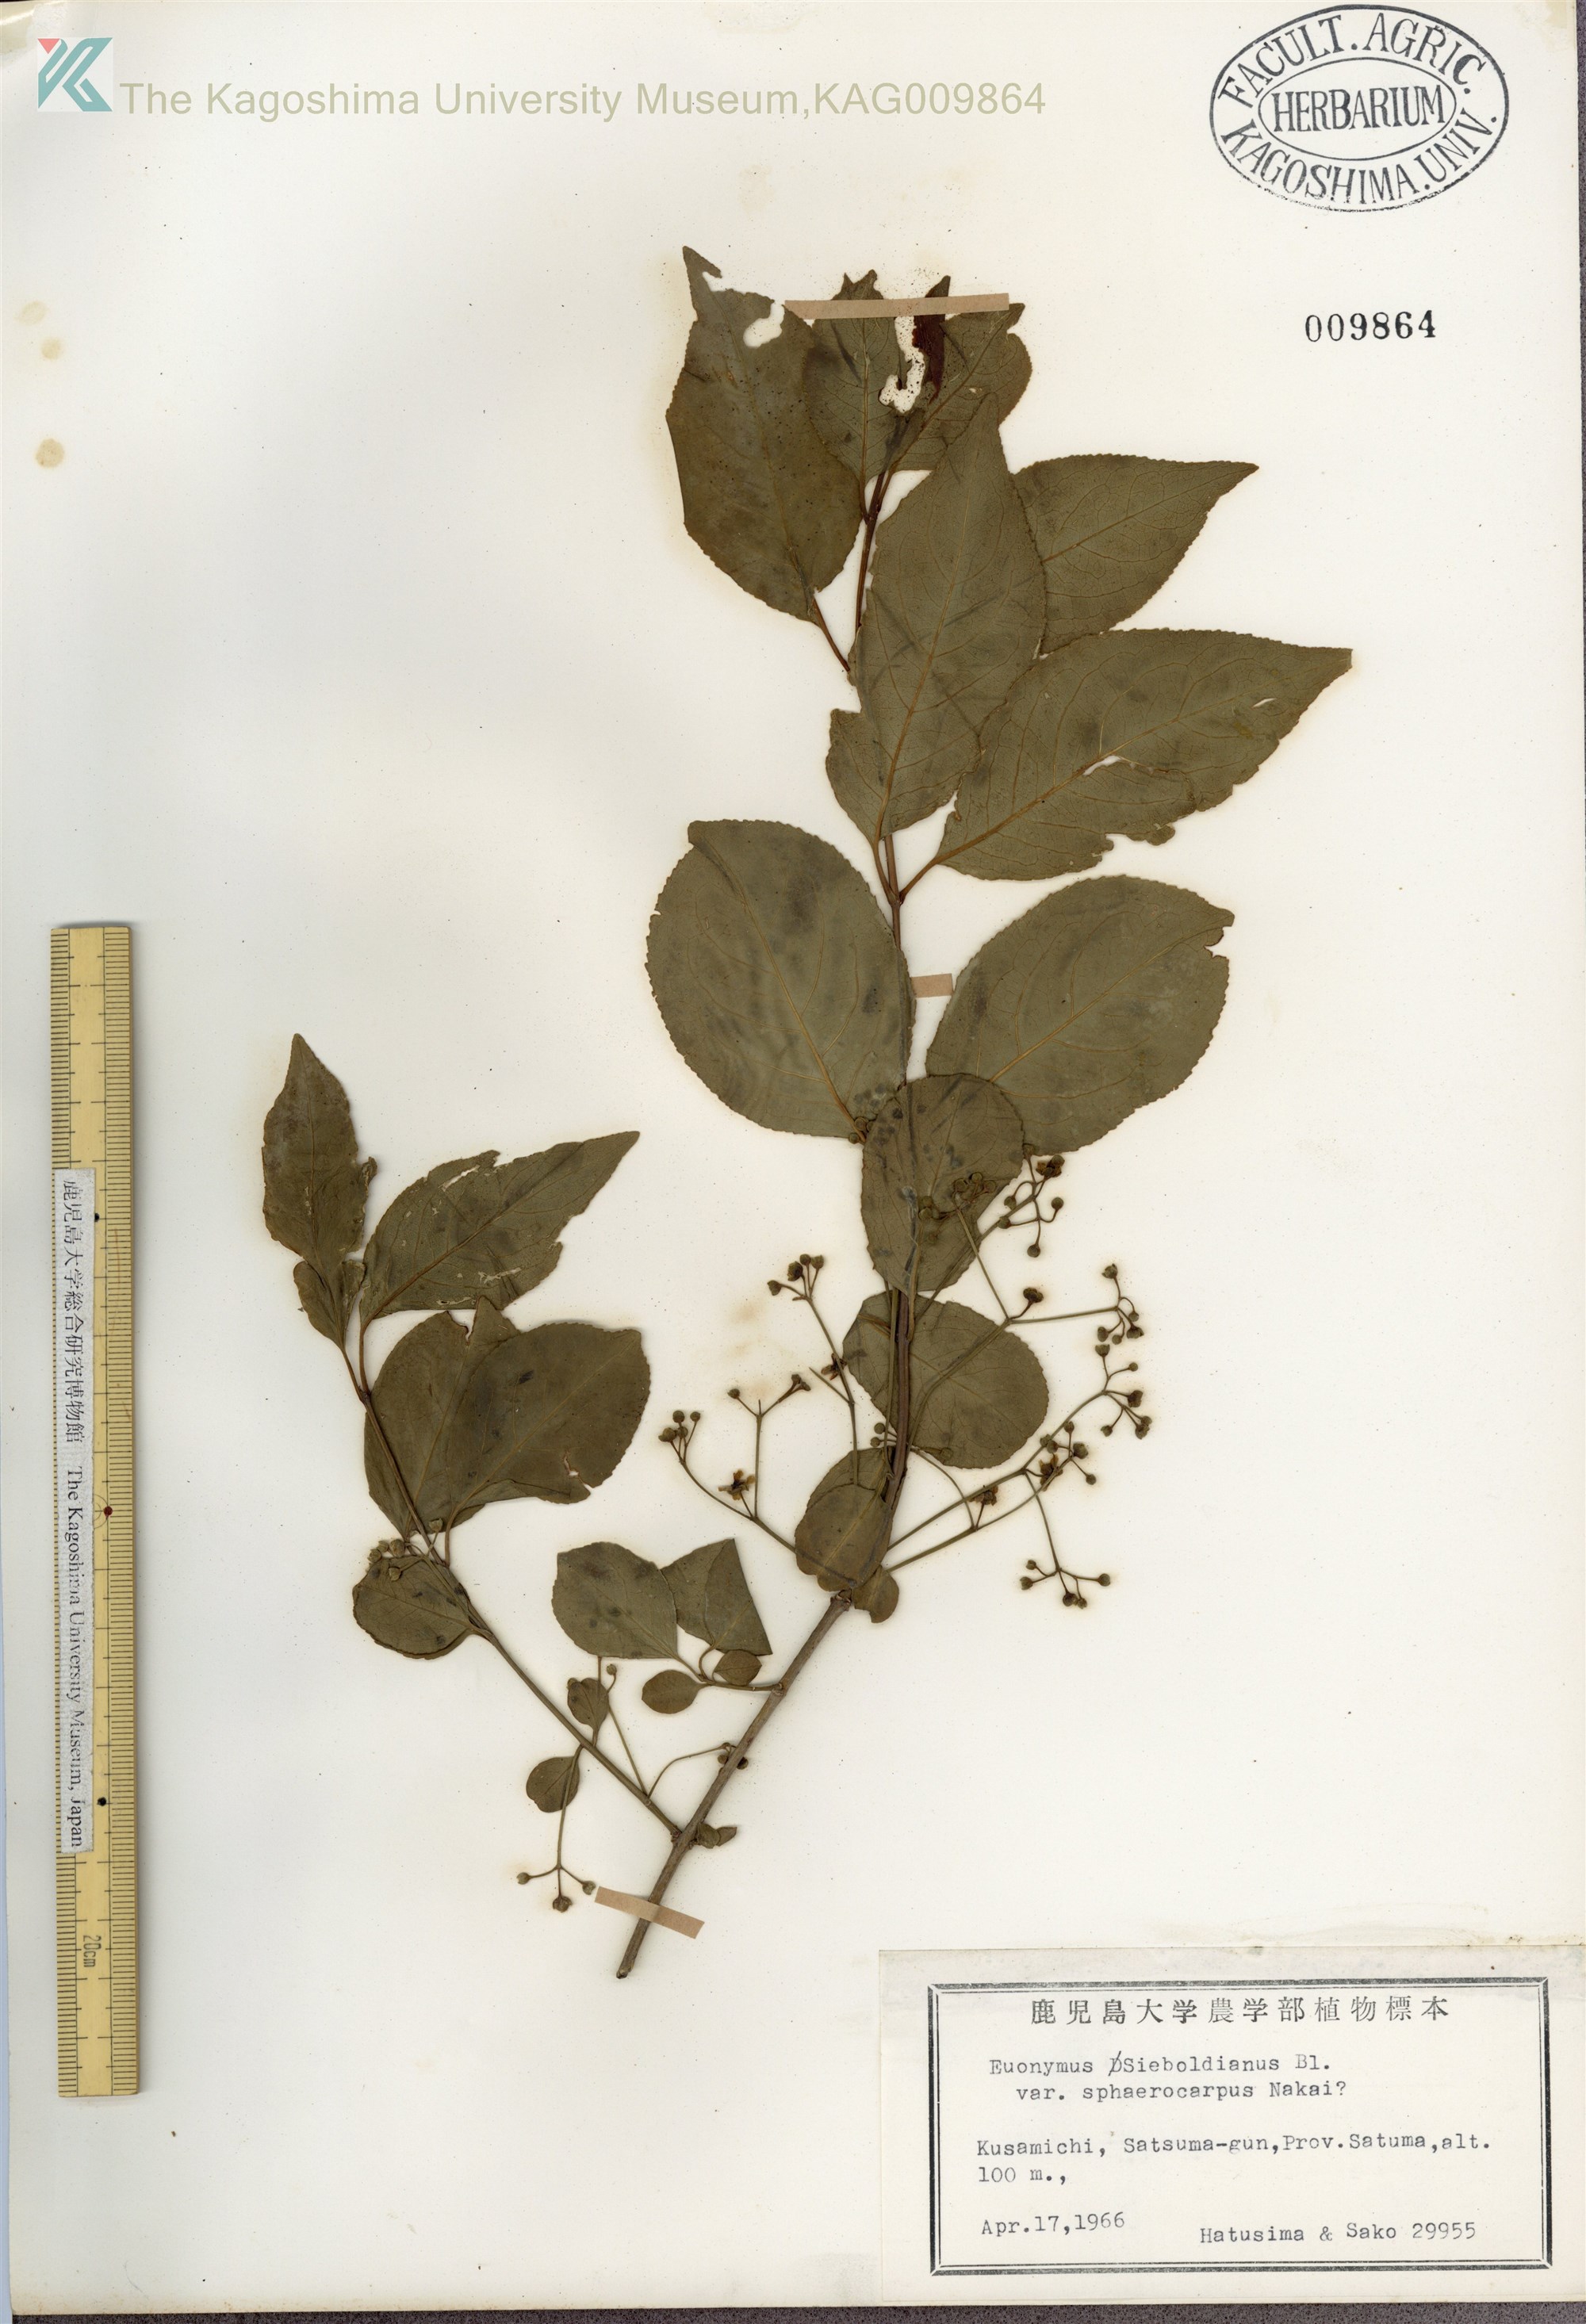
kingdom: Plantae
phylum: Tracheophyta
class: Magnoliopsida
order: Celastrales
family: Celastraceae
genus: Euonymus
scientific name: Euonymus hamiltonianus
